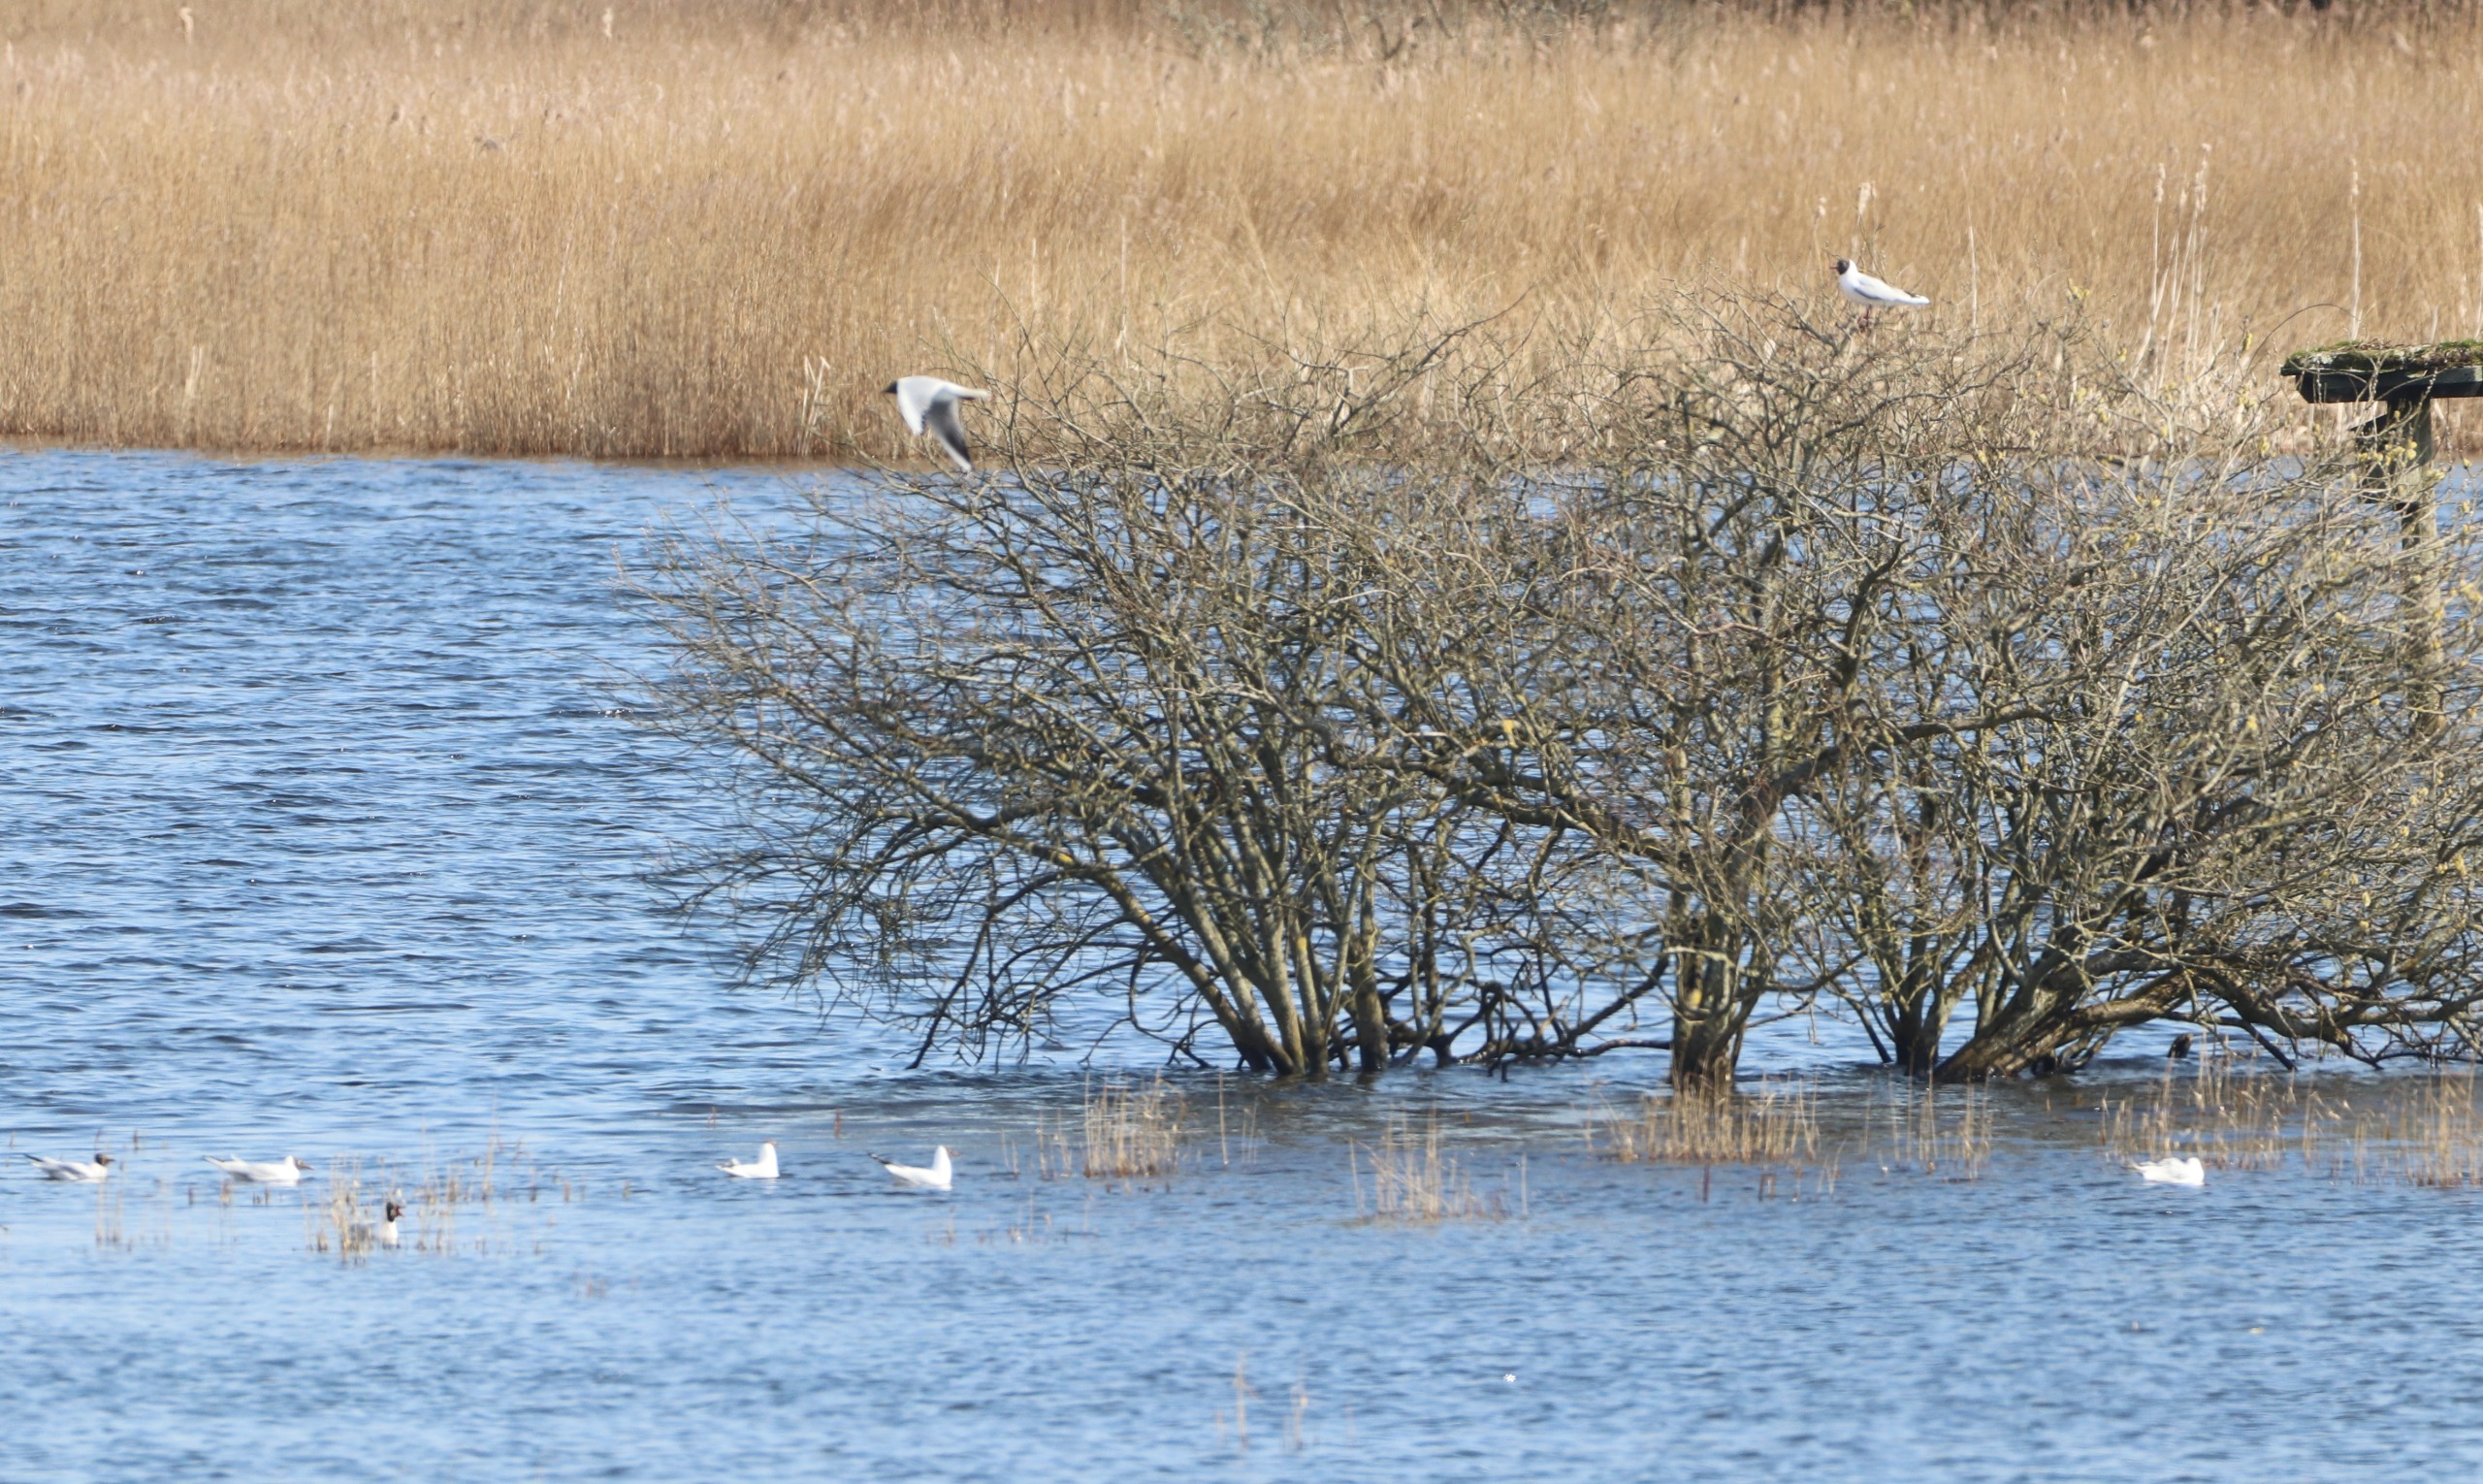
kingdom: Animalia
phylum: Chordata
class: Aves
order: Charadriiformes
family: Laridae
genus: Chroicocephalus
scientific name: Chroicocephalus ridibundus
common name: Hættemåge
